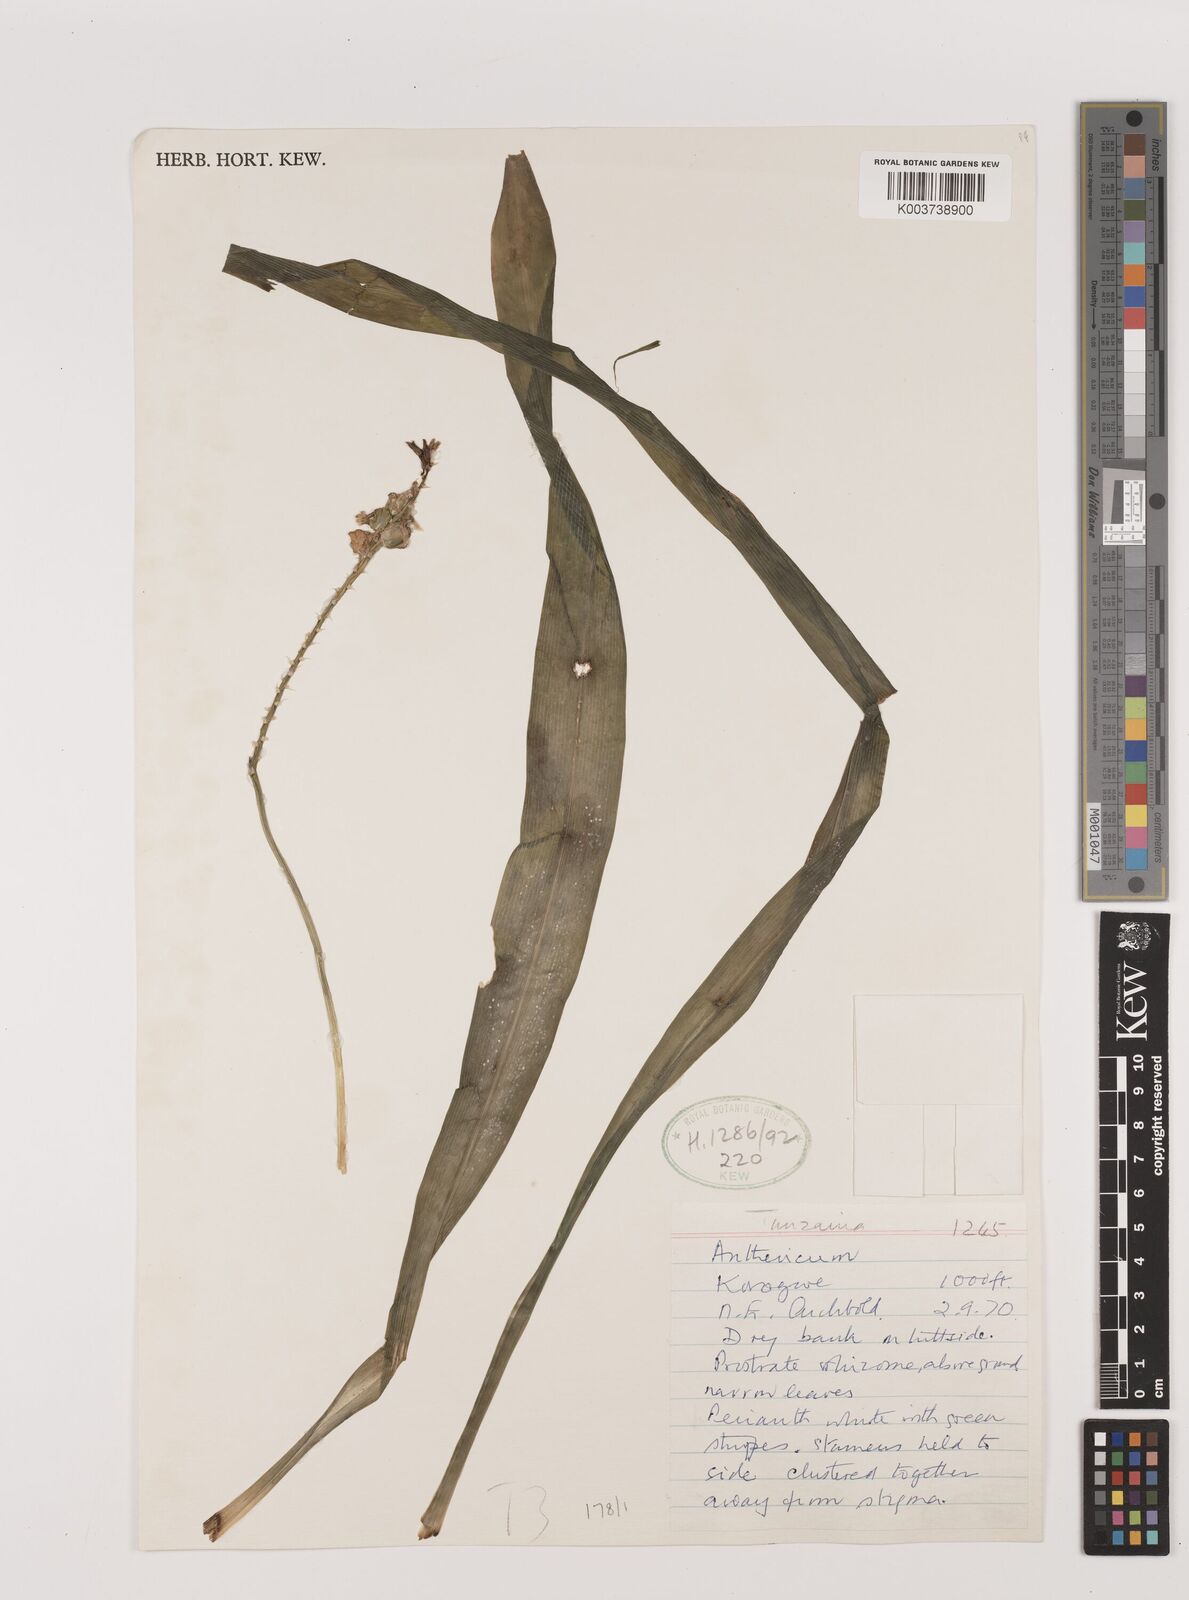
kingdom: Plantae
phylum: Tracheophyta
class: Liliopsida
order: Asparagales
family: Asparagaceae
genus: Chlorophytum
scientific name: Chlorophytum comosum
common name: Spider plant
